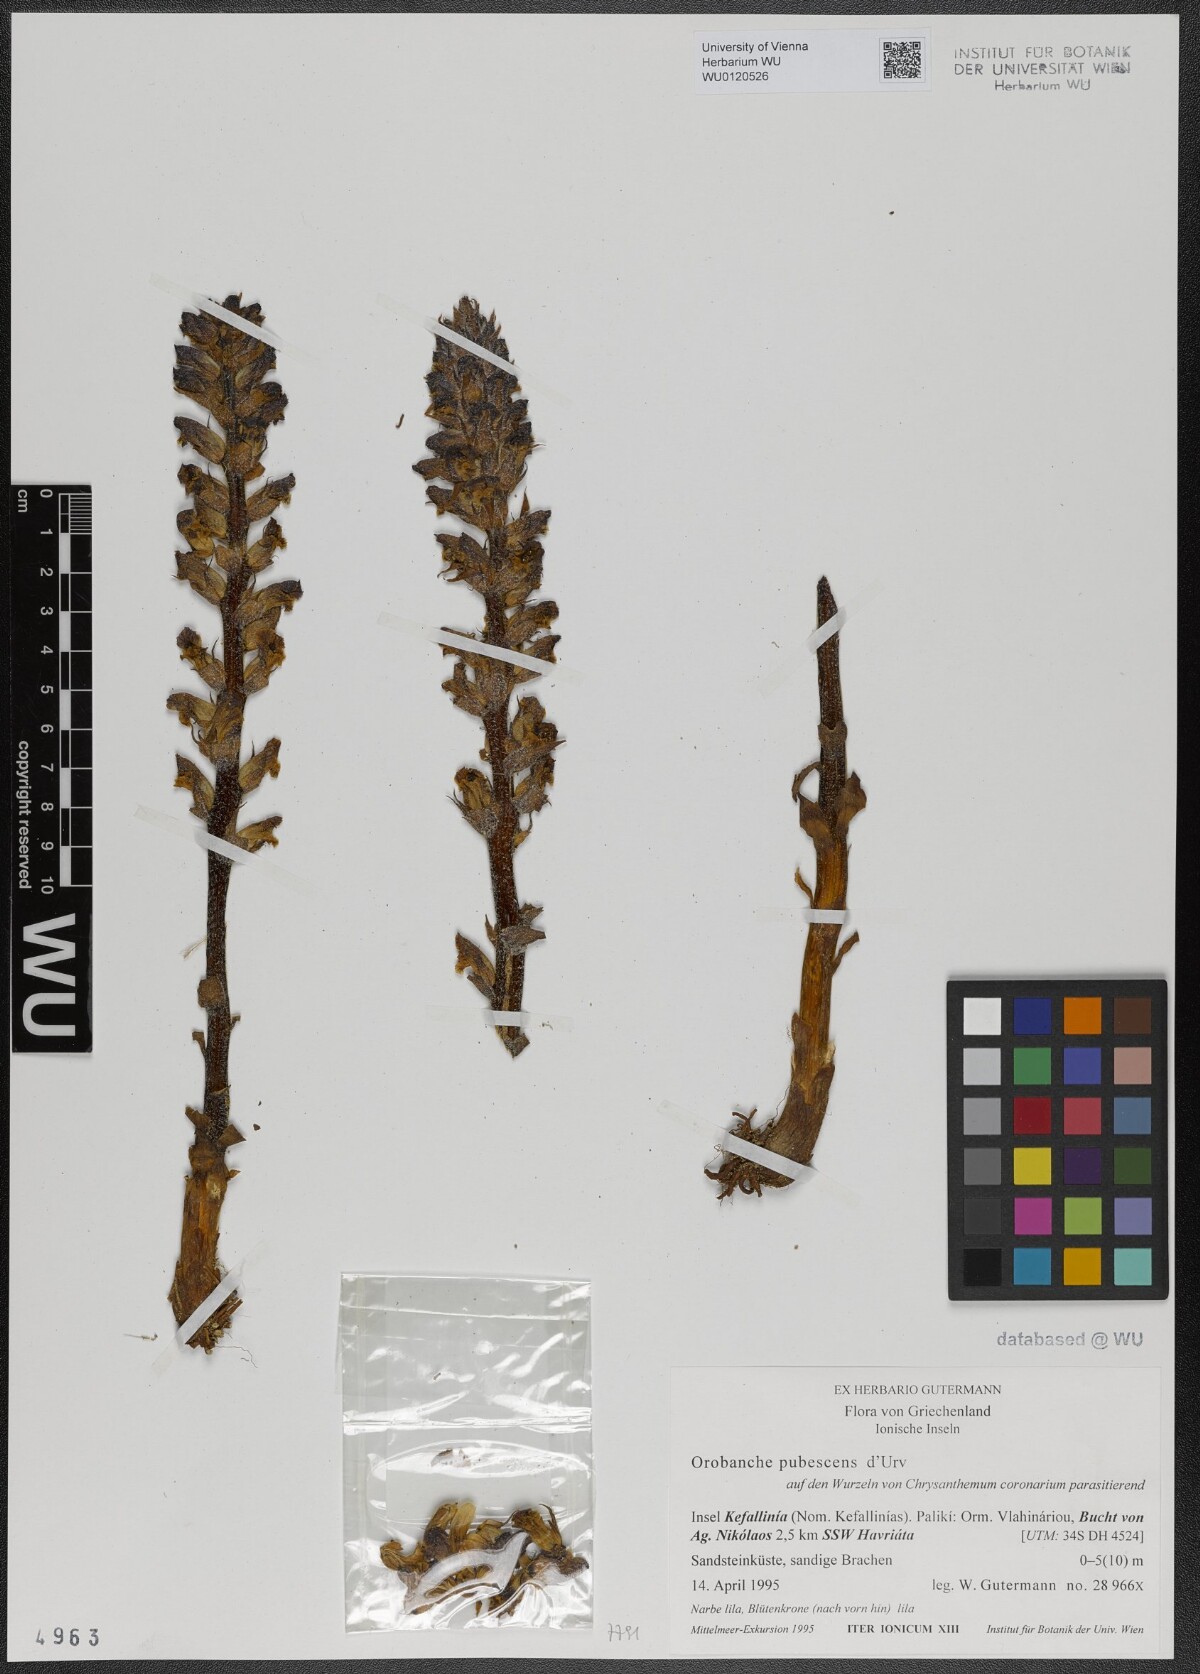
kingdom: Plantae
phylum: Tracheophyta
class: Magnoliopsida
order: Lamiales
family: Orobanchaceae
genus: Orobanche
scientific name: Orobanche pubescens
